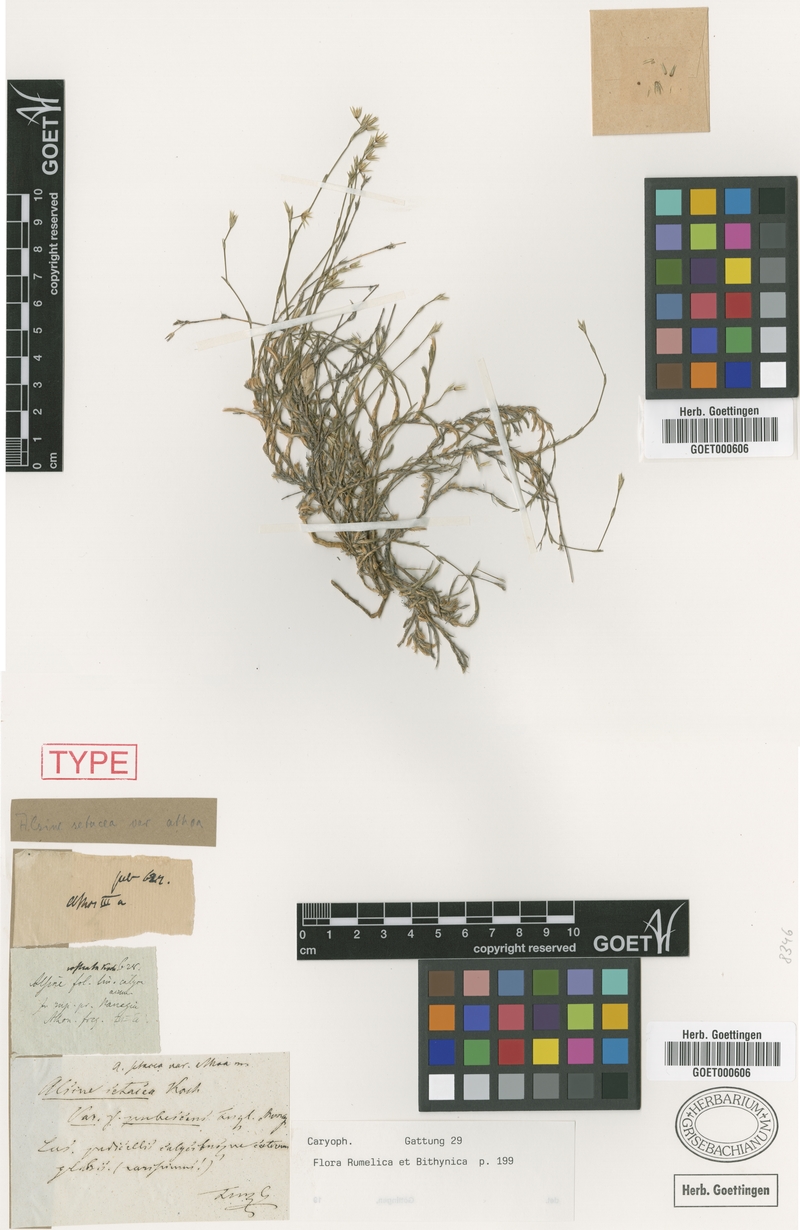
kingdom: Plantae
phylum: Tracheophyta
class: Magnoliopsida
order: Caryophyllales
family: Caryophyllaceae
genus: Minuartia
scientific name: Minuartia athoa
